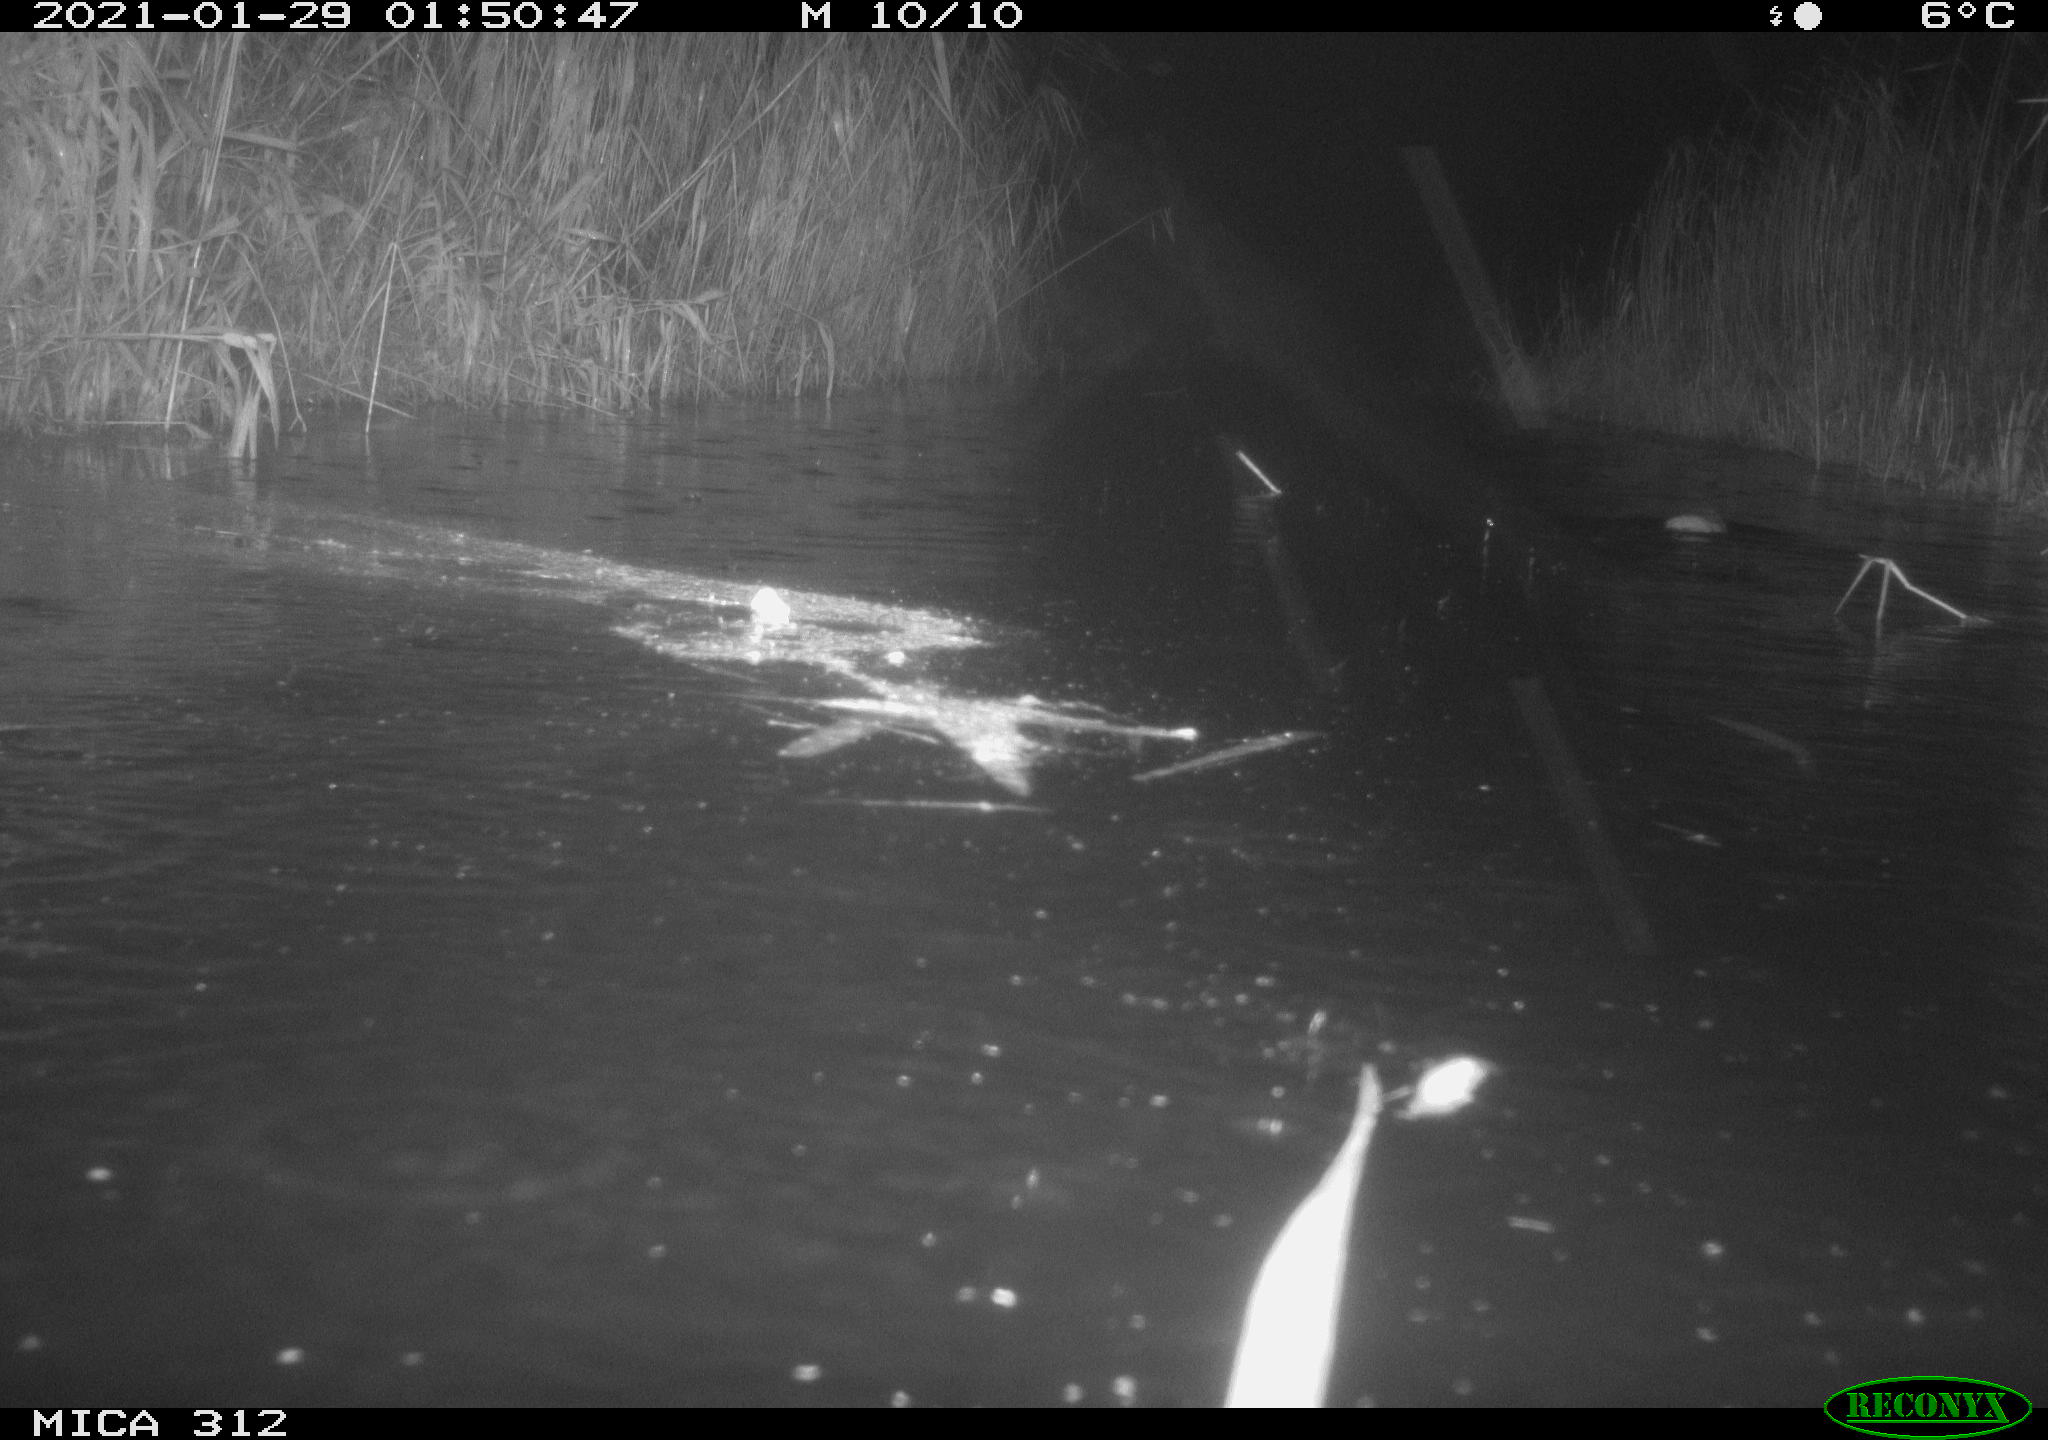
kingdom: Animalia
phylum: Chordata
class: Mammalia
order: Rodentia
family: Muridae
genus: Rattus
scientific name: Rattus norvegicus
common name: Brown rat
